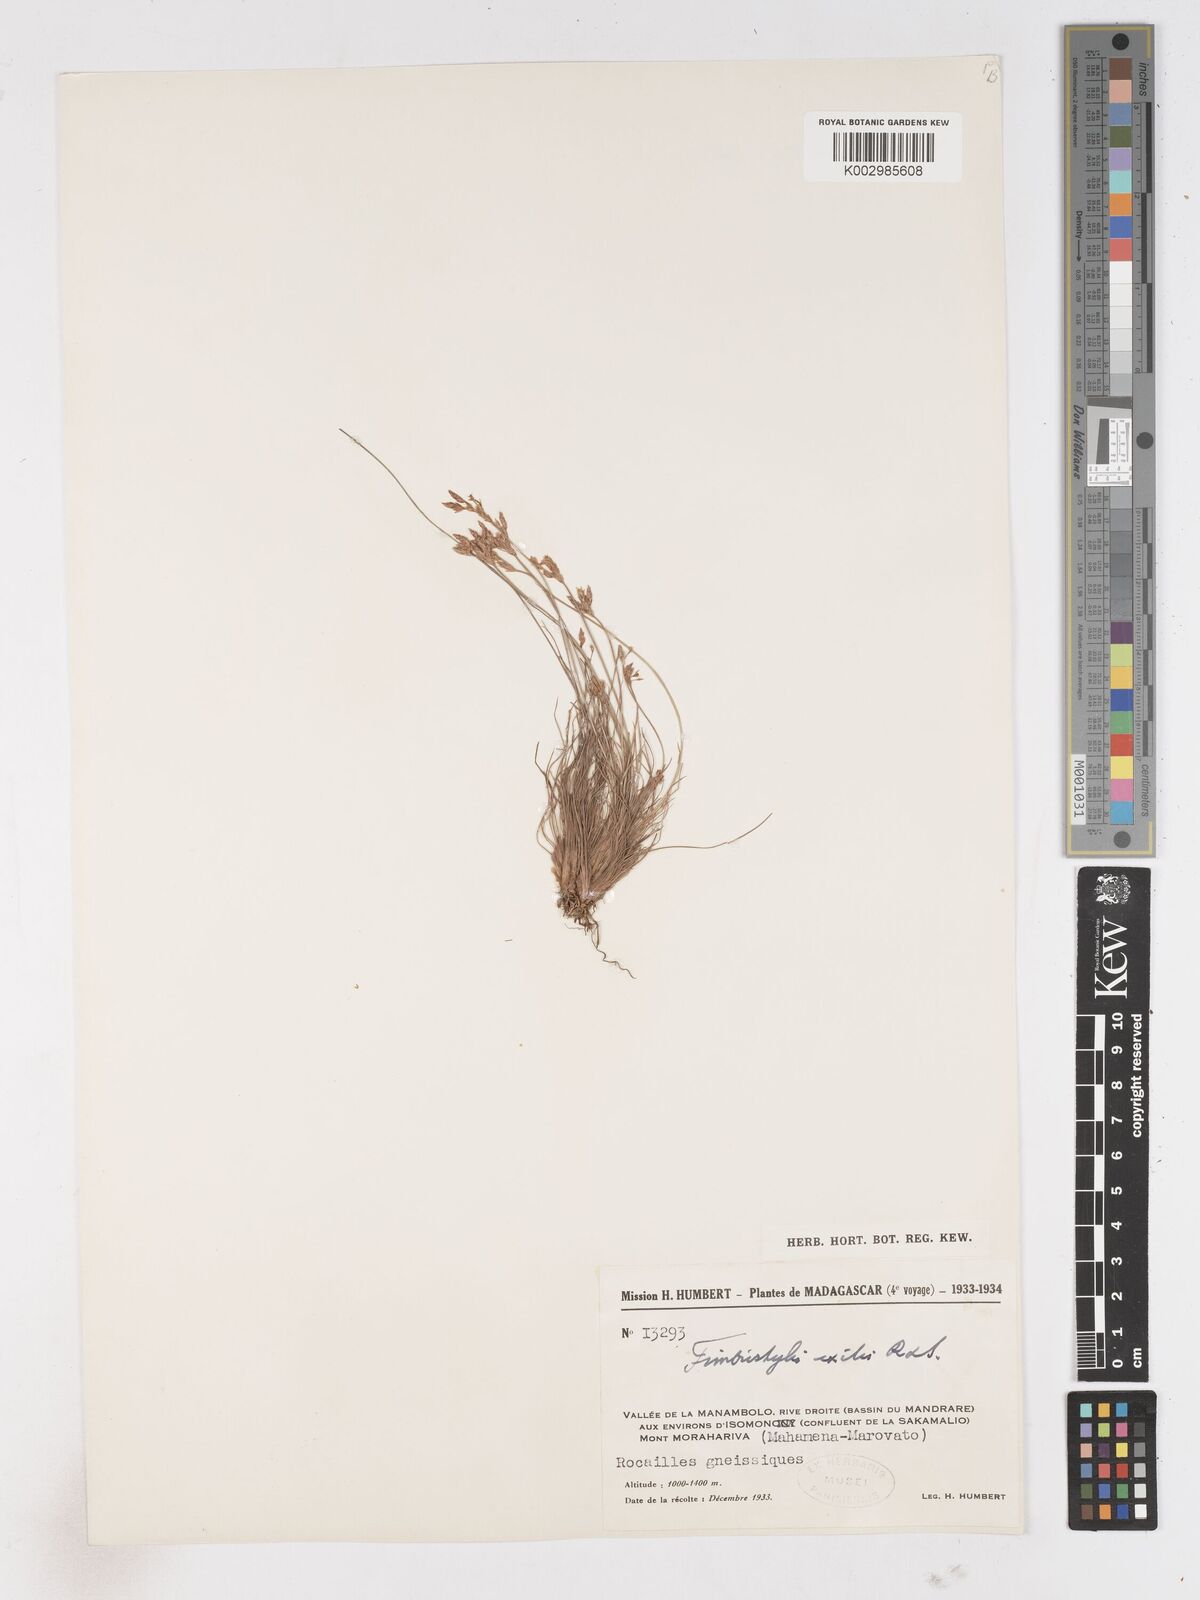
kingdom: Plantae
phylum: Tracheophyta
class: Liliopsida
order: Poales
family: Cyperaceae
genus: Bulbostylis
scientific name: Bulbostylis hispidula
